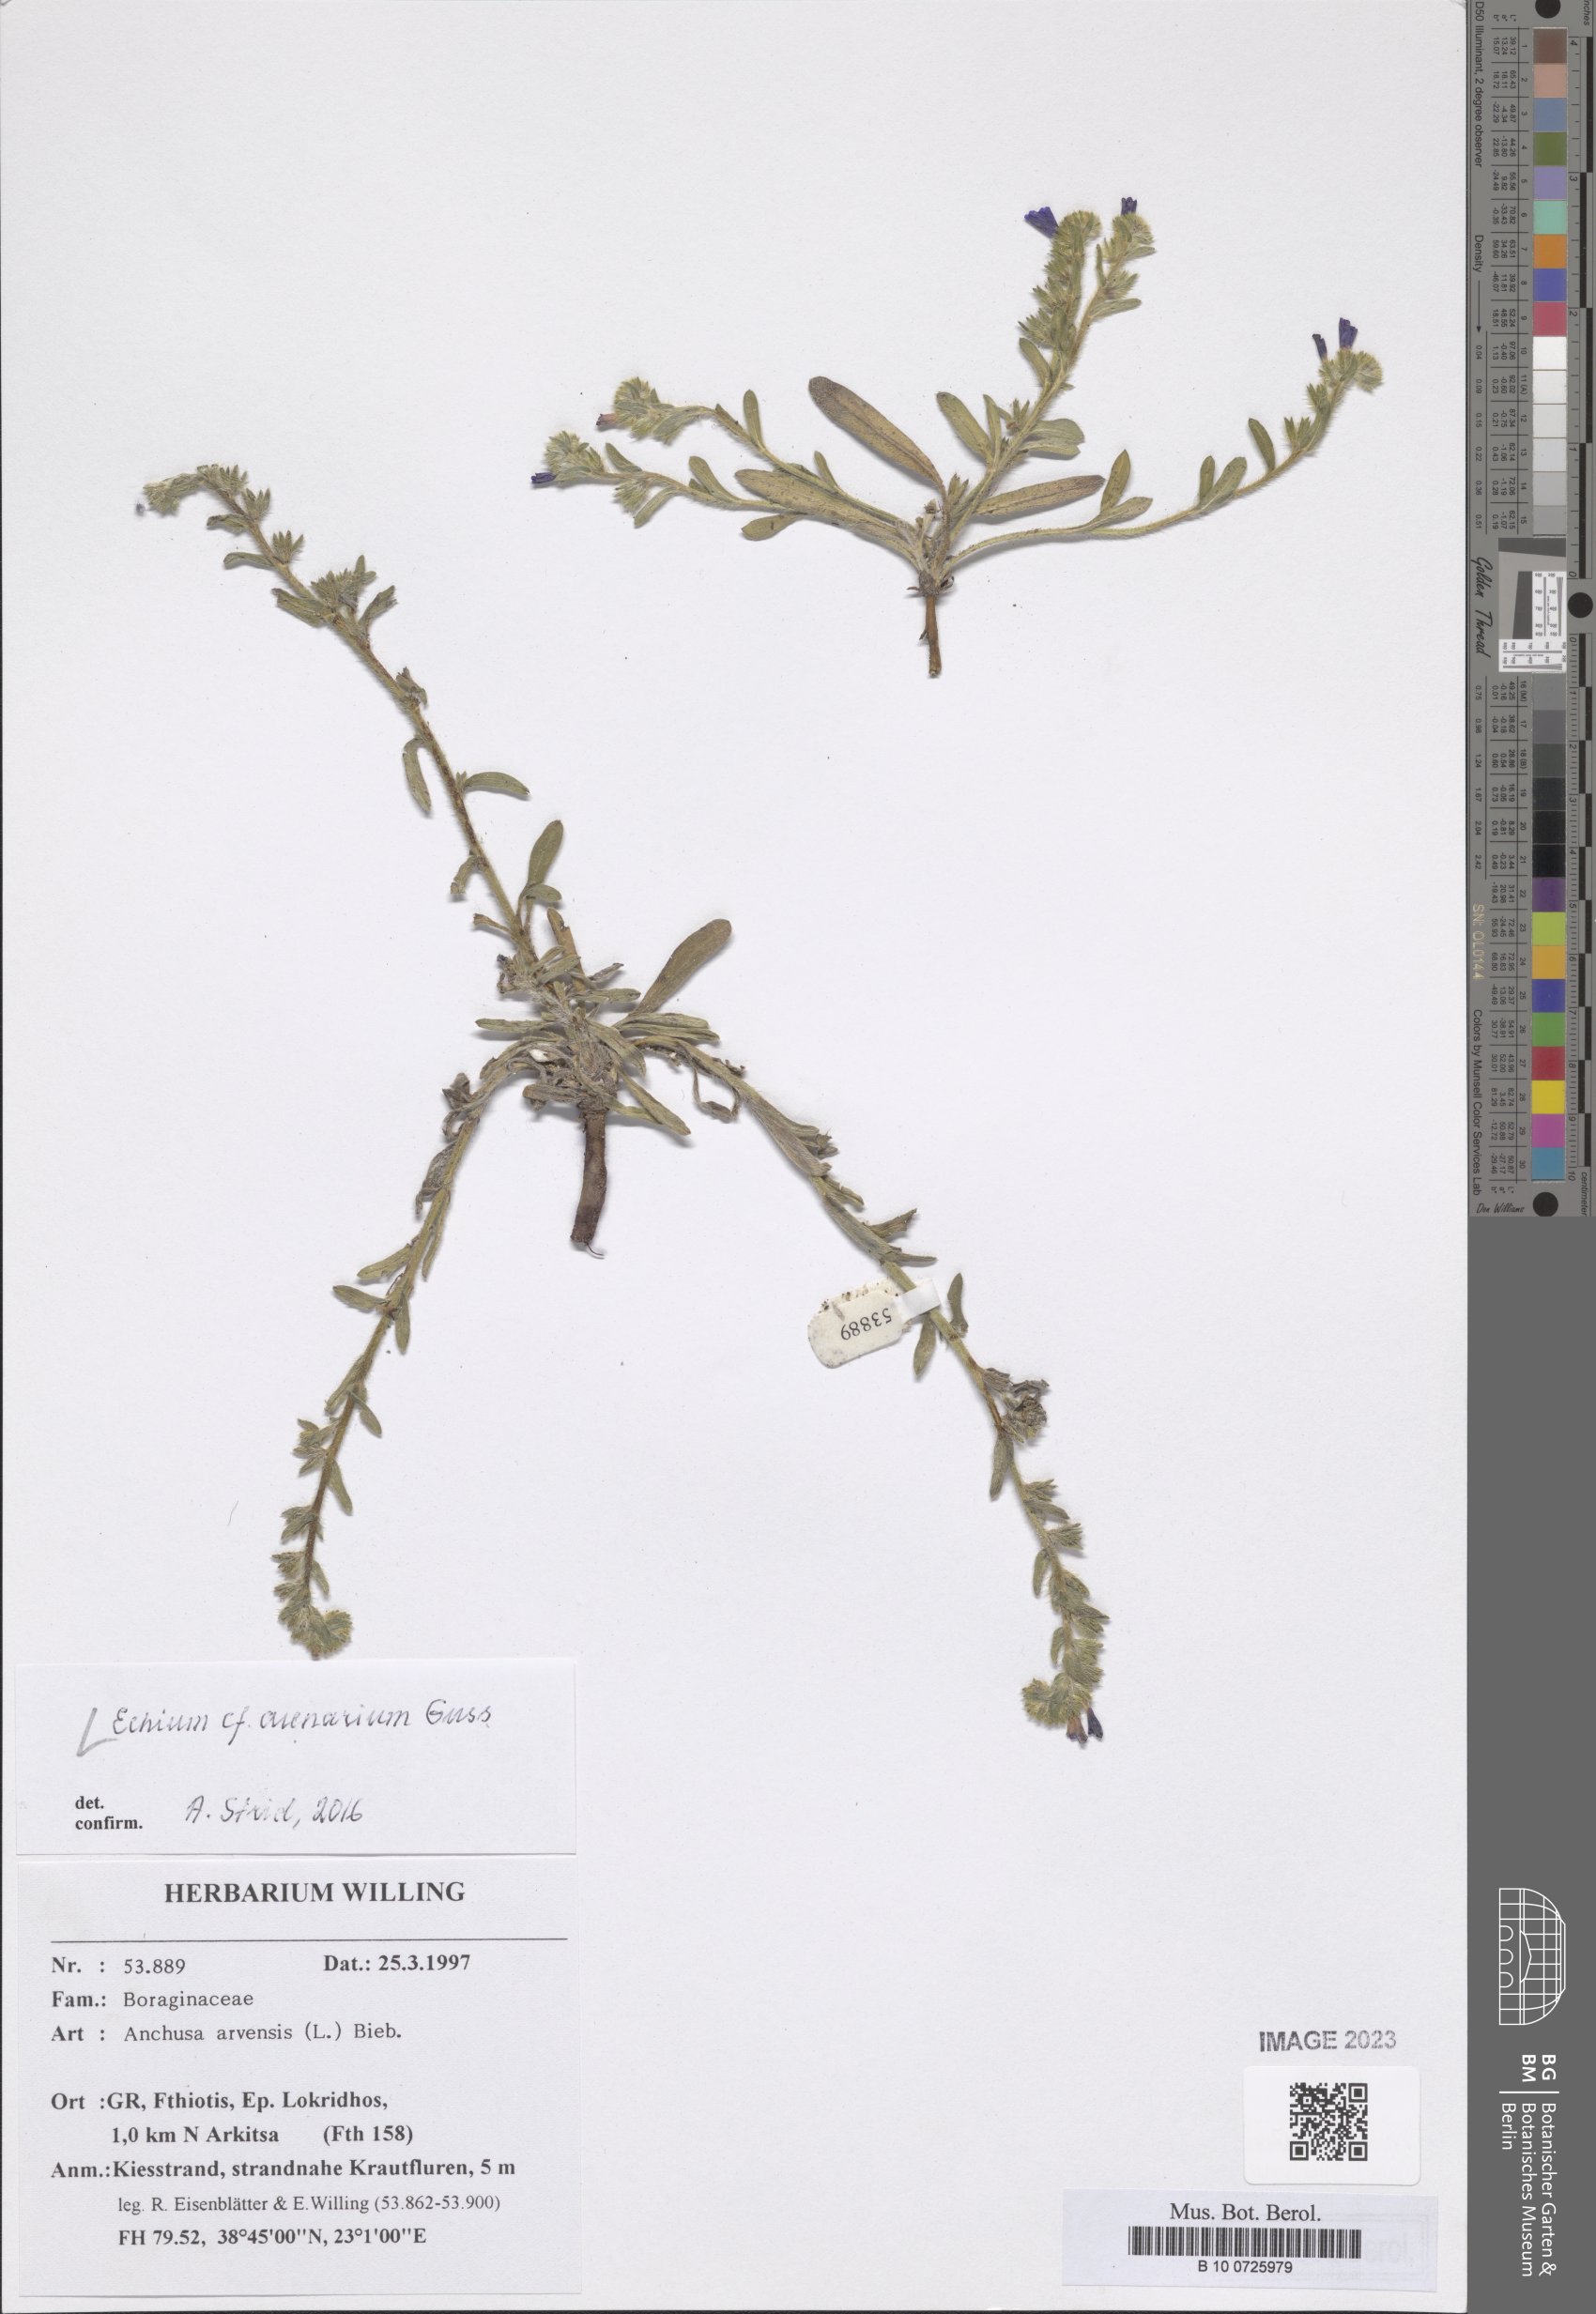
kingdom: Plantae
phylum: Tracheophyta
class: Magnoliopsida
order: Boraginales
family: Boraginaceae
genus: Echium
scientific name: Echium arenarium
